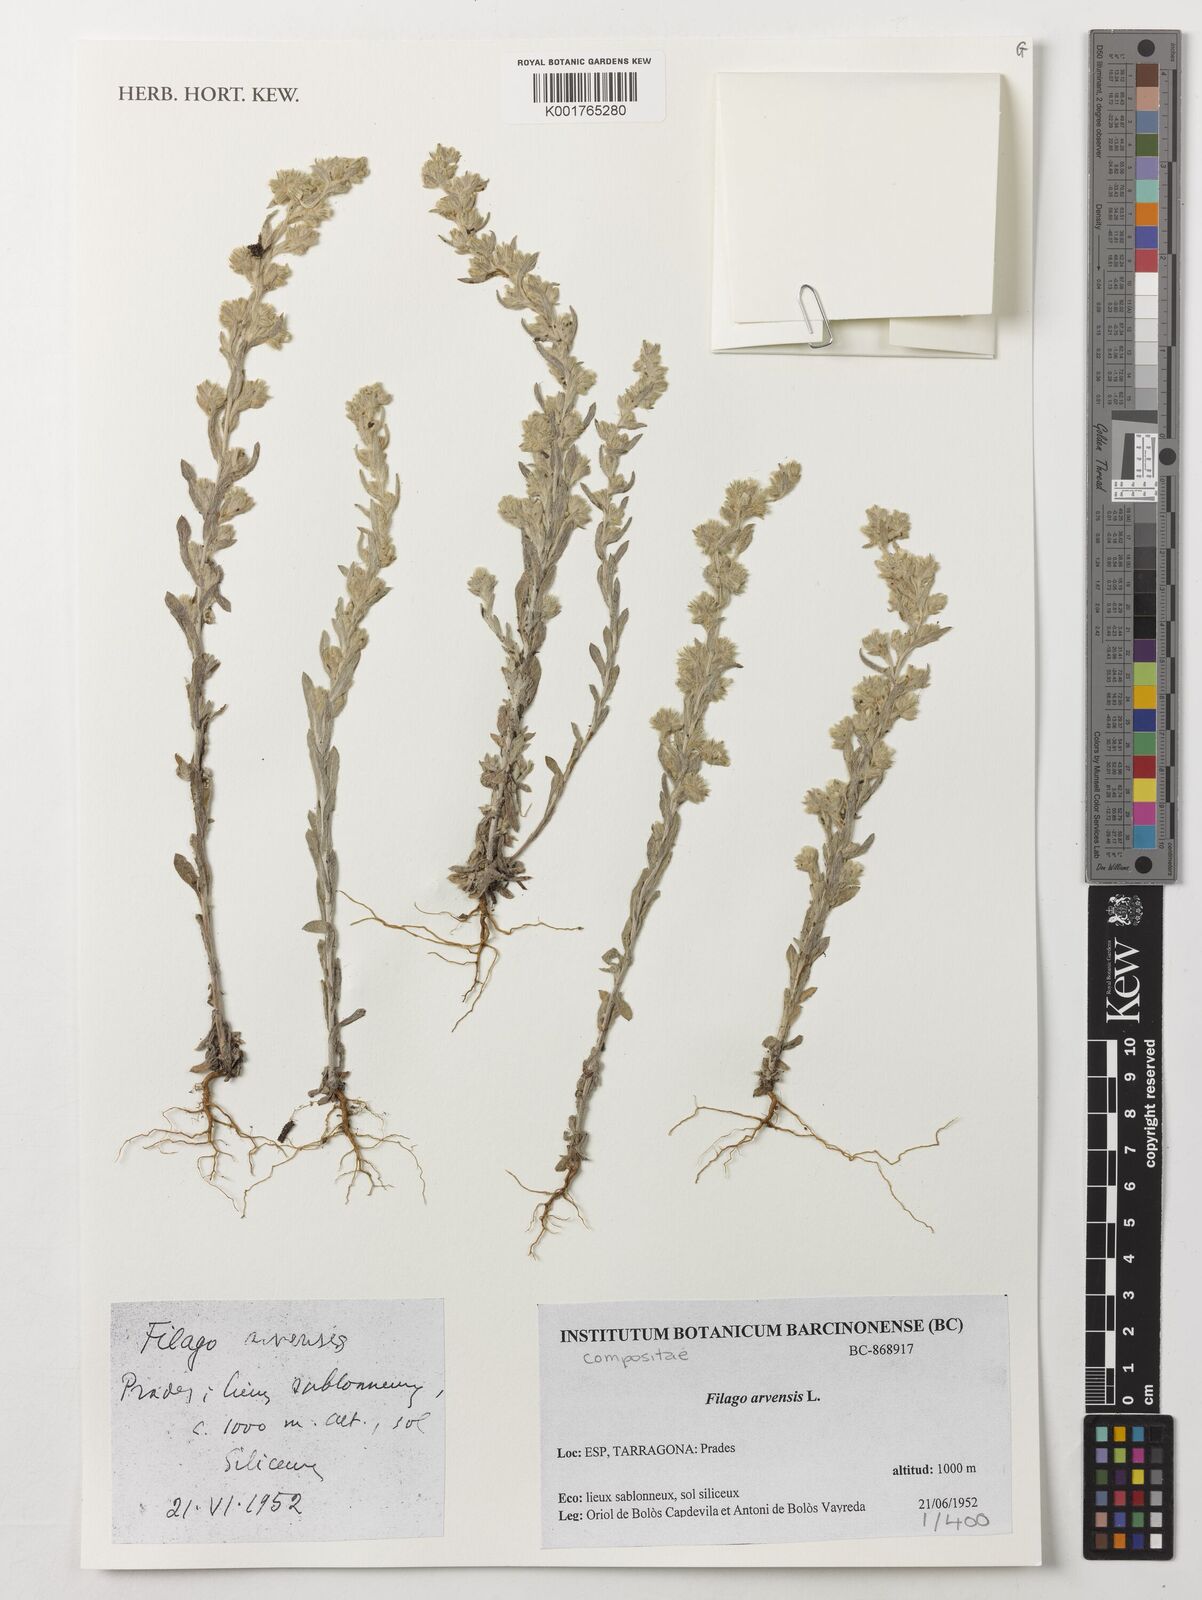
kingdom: Plantae
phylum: Tracheophyta
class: Magnoliopsida
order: Asterales
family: Asteraceae
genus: Filago
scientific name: Filago arvensis
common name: Field cudweed
